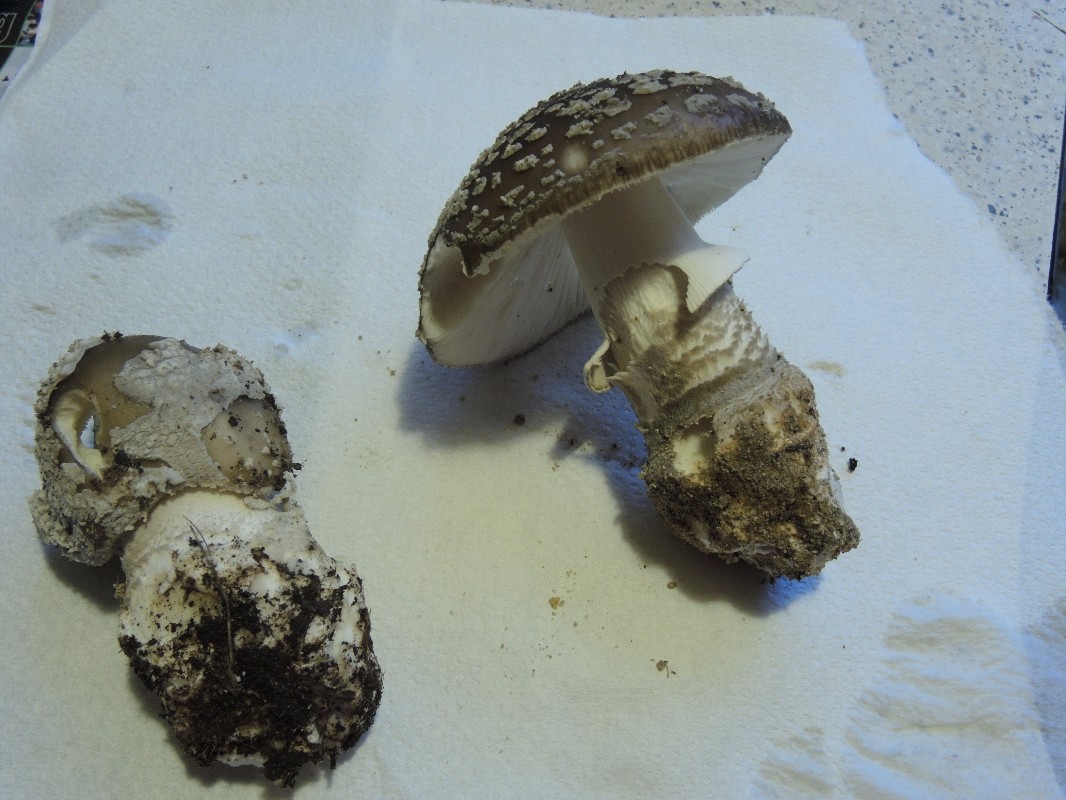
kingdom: Fungi
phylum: Basidiomycota
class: Agaricomycetes
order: Agaricales
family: Amanitaceae
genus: Amanita
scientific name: Amanita
